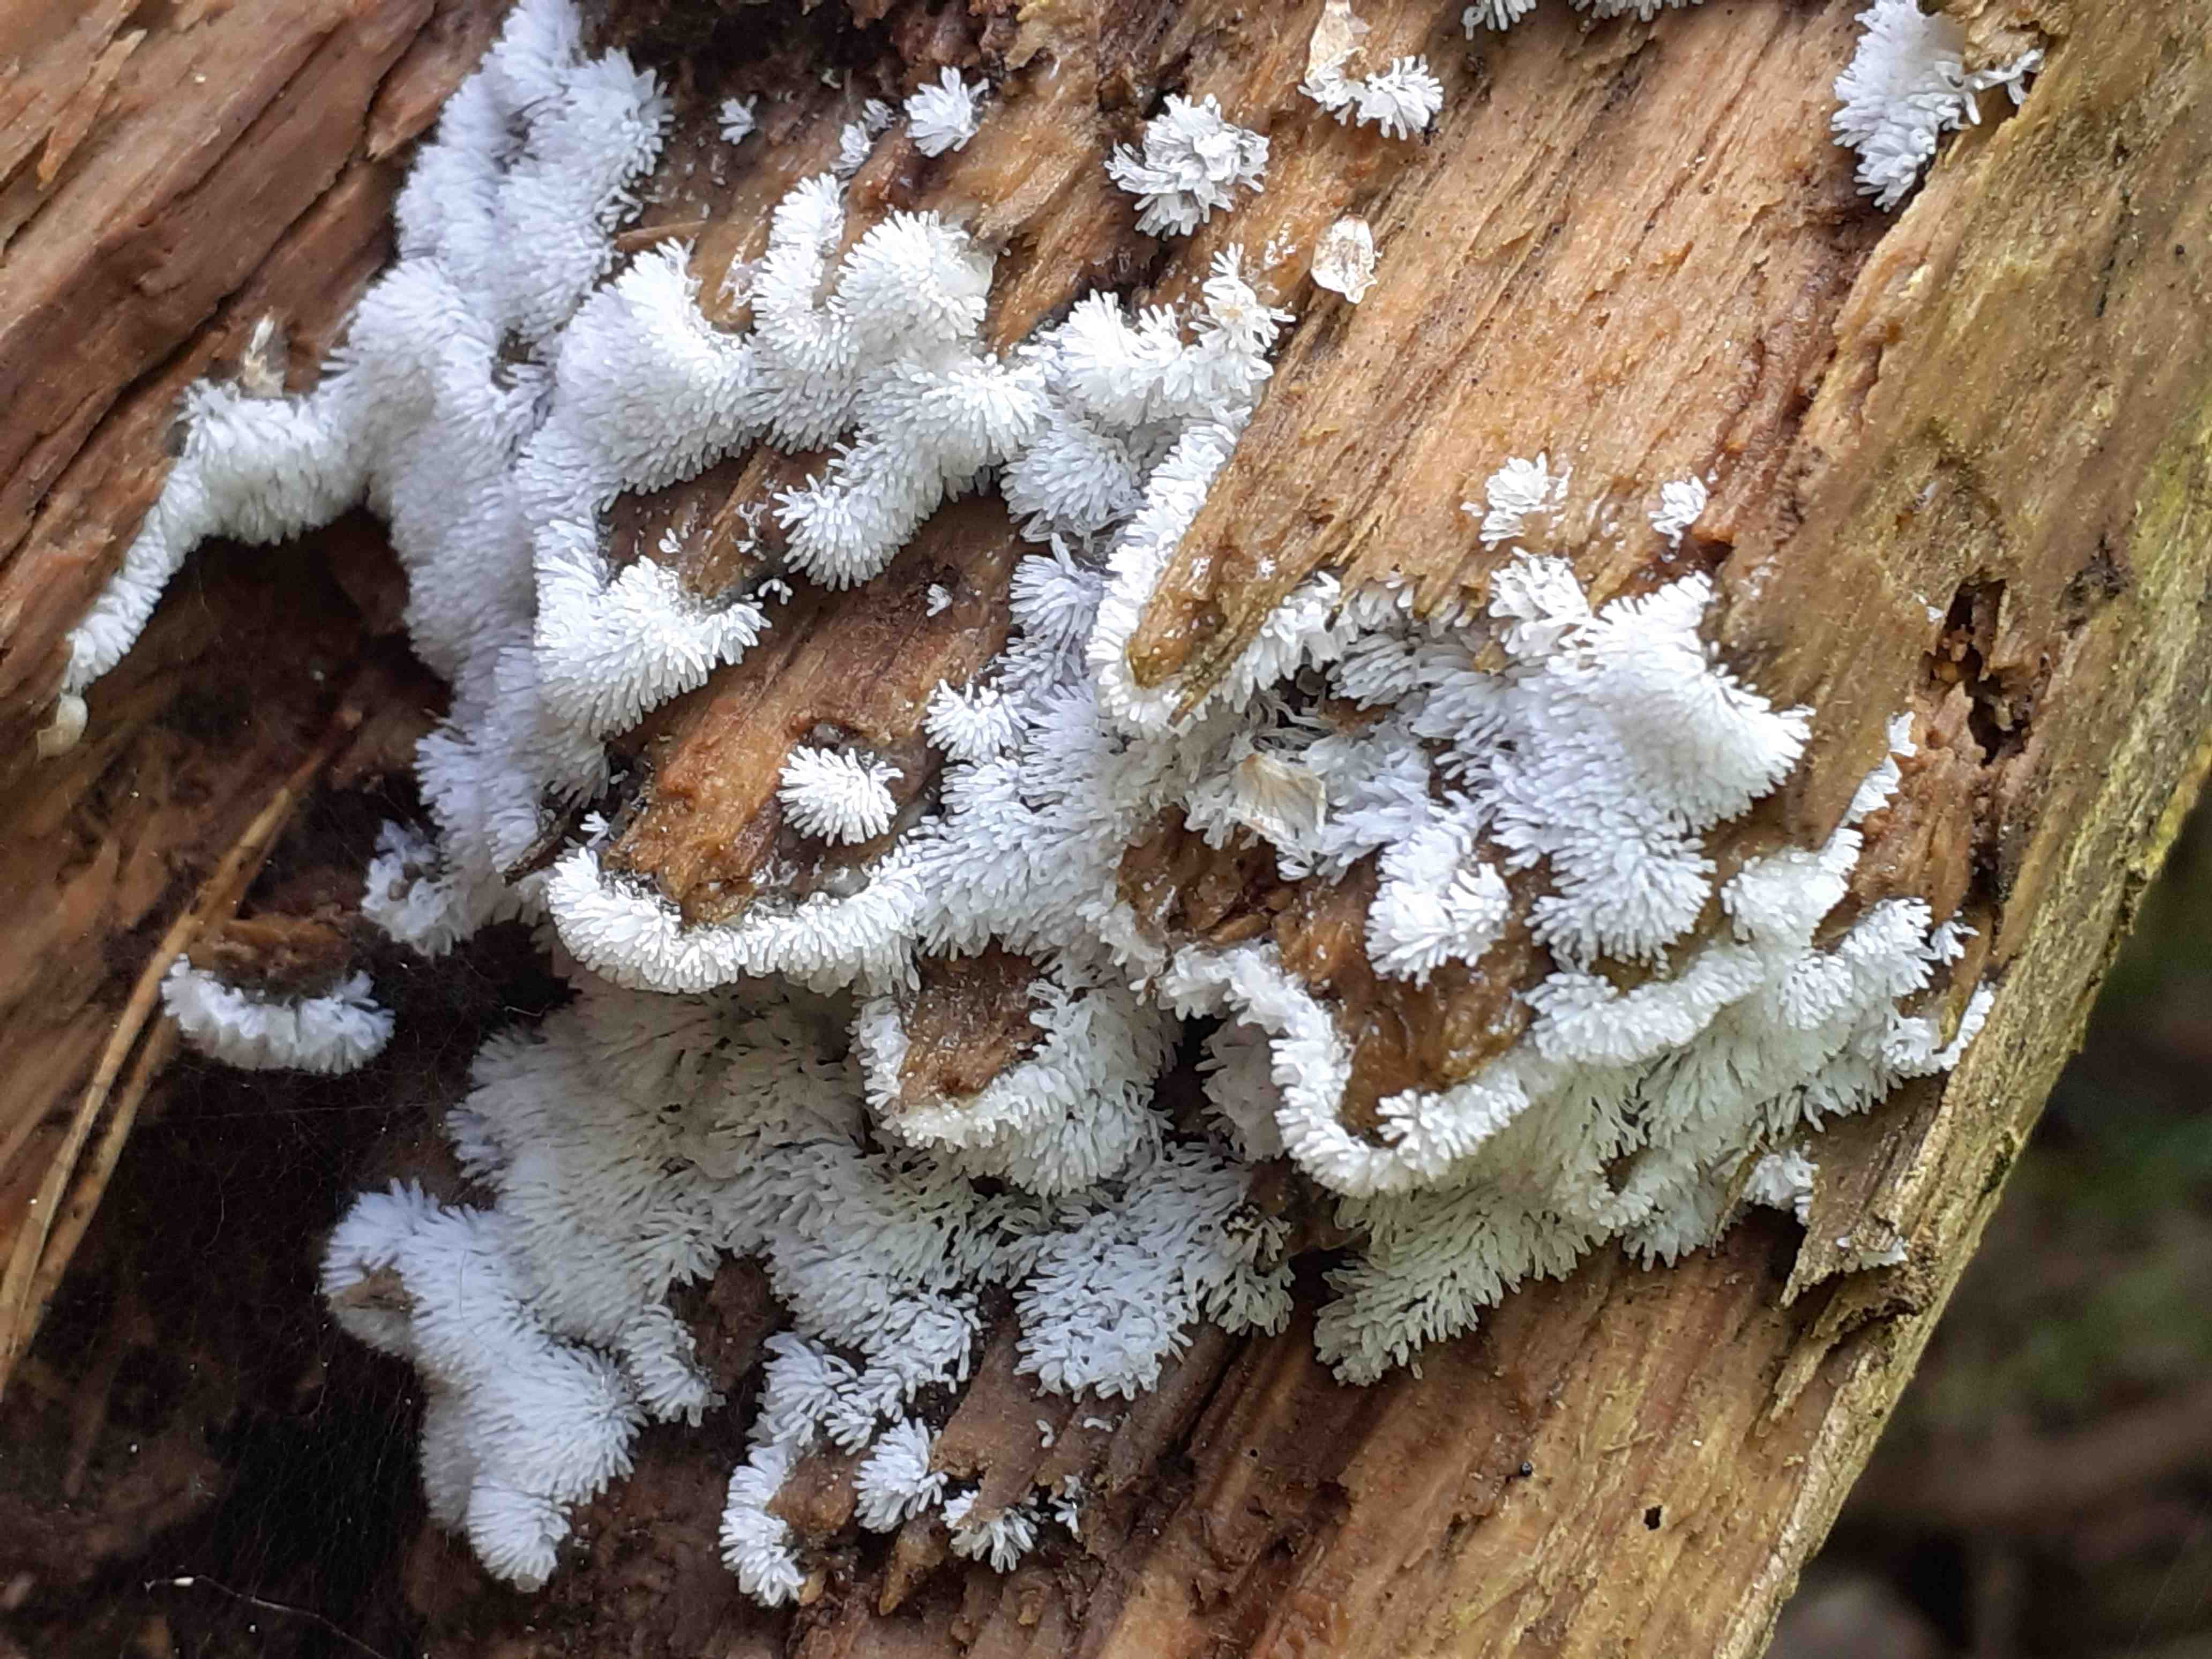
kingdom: Protozoa
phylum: Mycetozoa
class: Protosteliomycetes
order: Ceratiomyxales
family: Ceratiomyxaceae
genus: Ceratiomyxa
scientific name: Ceratiomyxa fruticulosa
